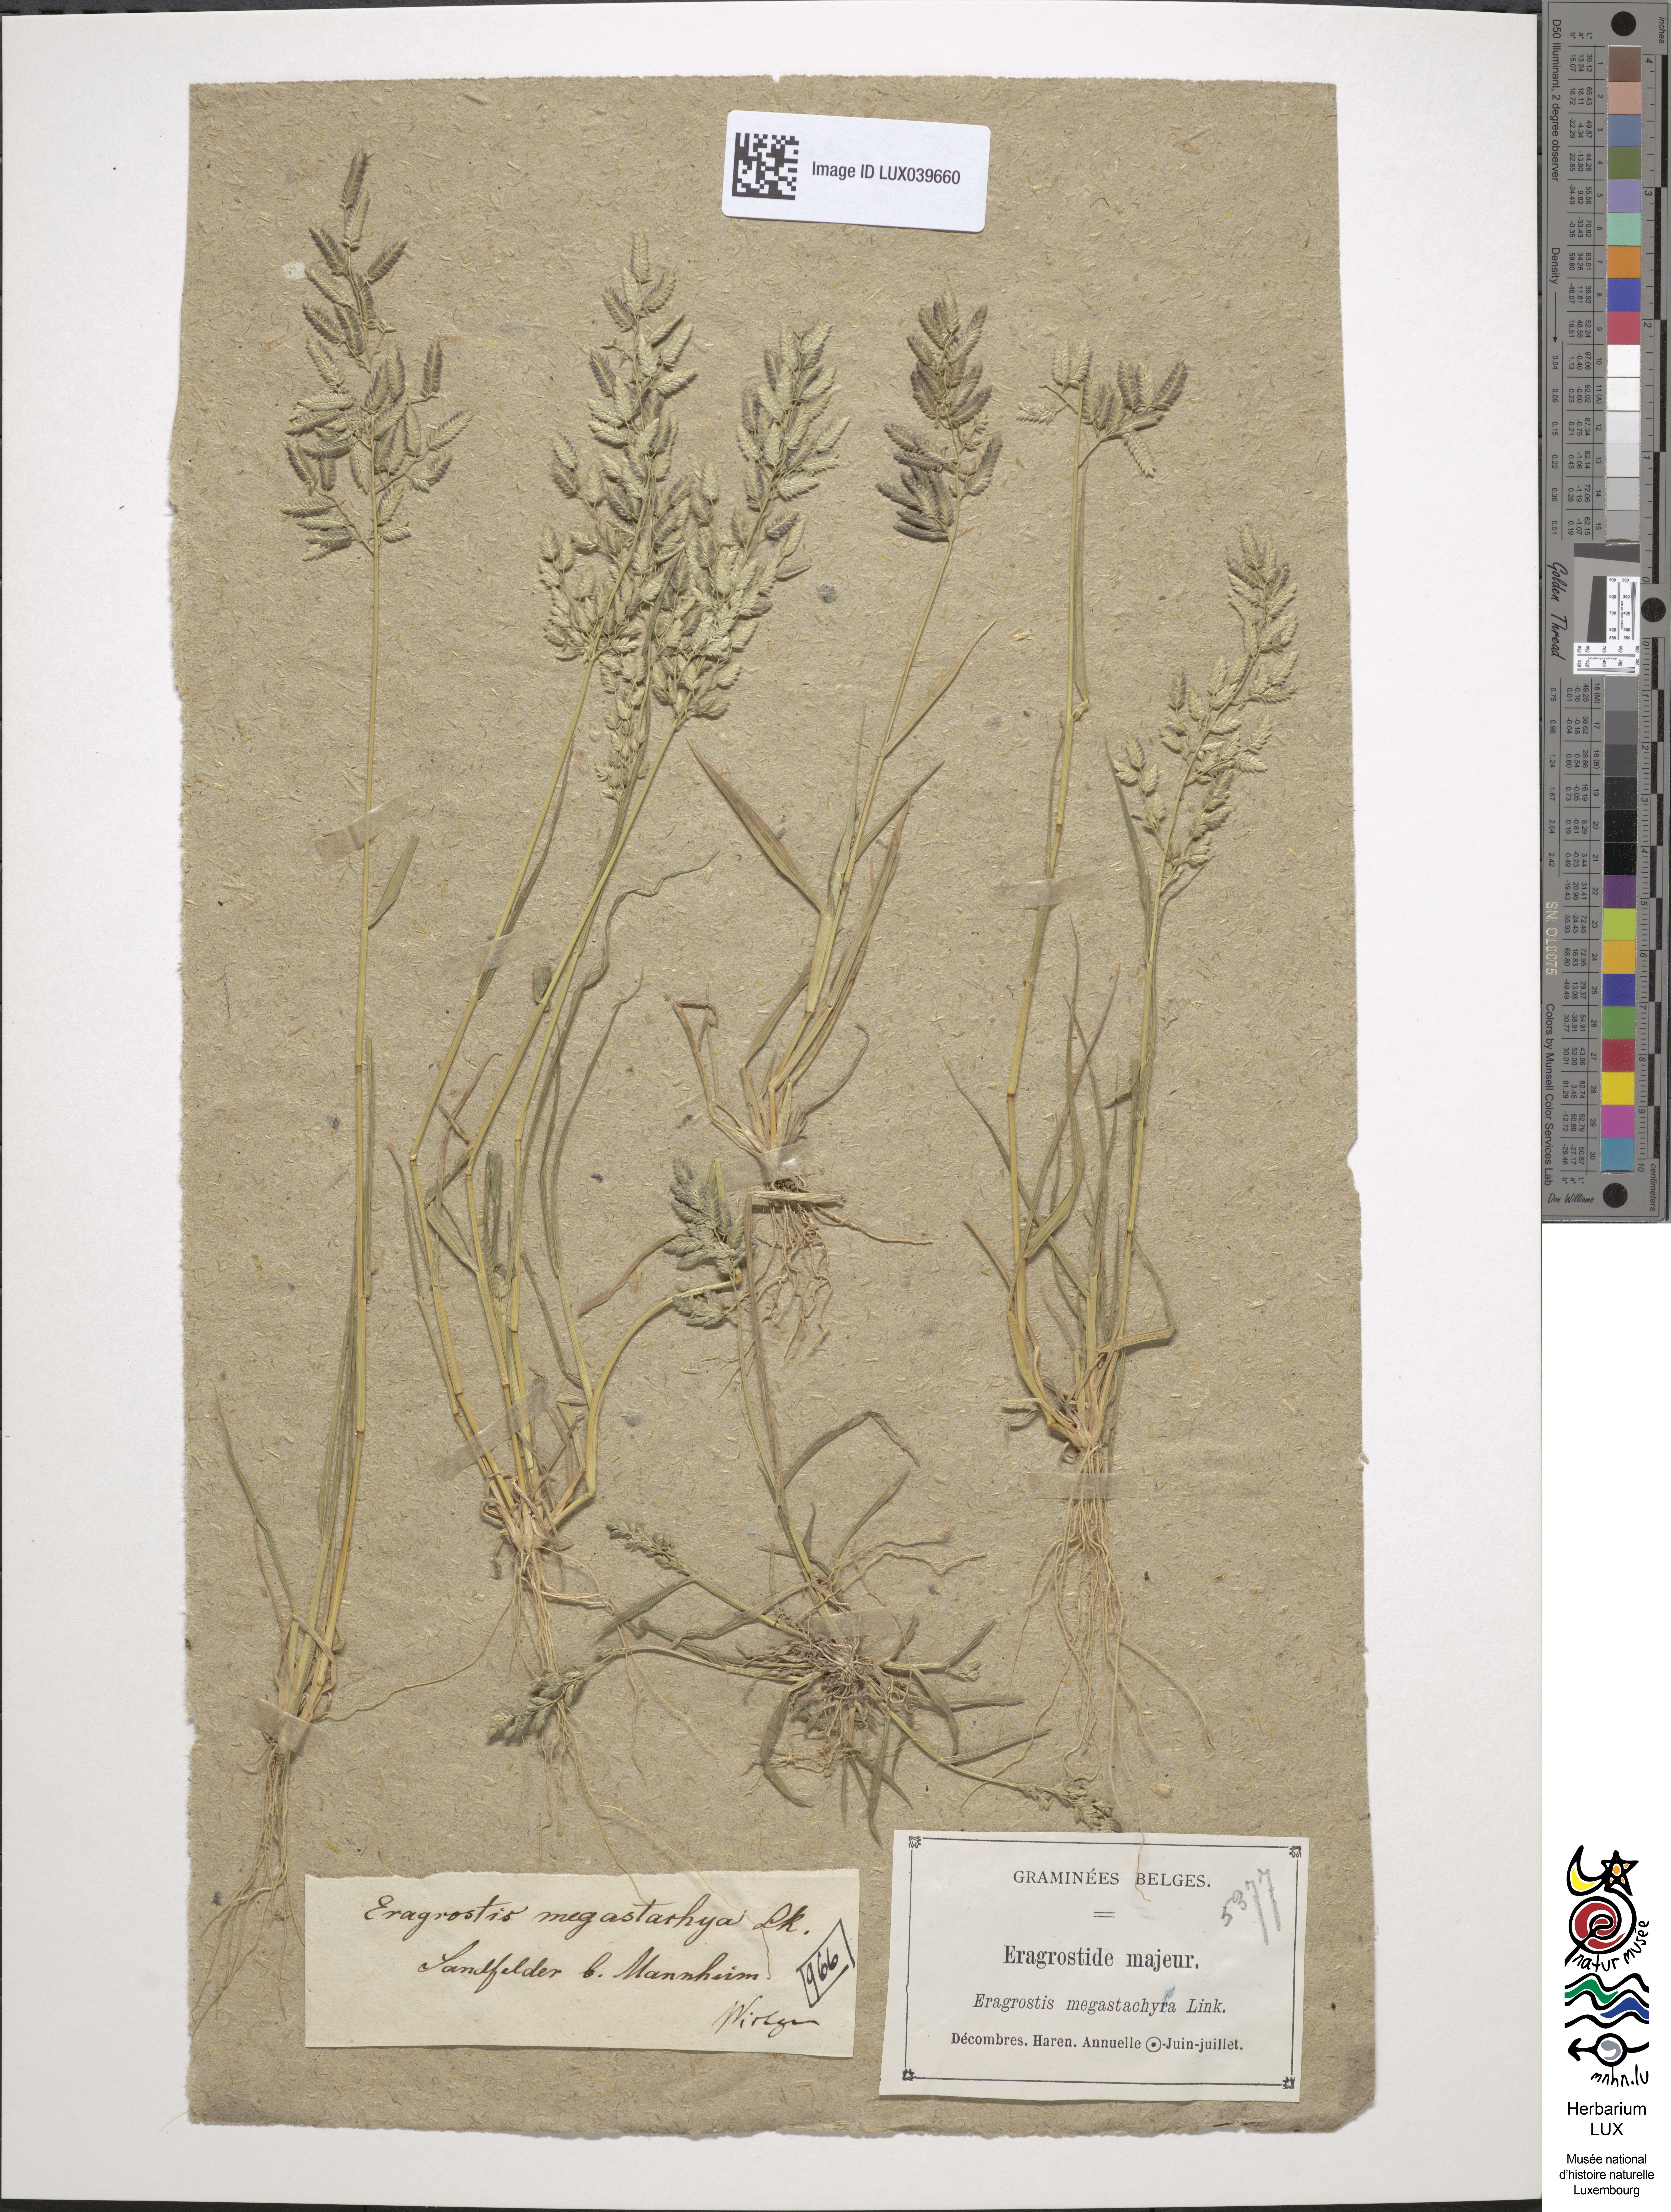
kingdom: Plantae
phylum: Tracheophyta
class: Liliopsida
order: Poales
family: Poaceae
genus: Eragrostis
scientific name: Eragrostis cilianensis
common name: Stinkgrass
